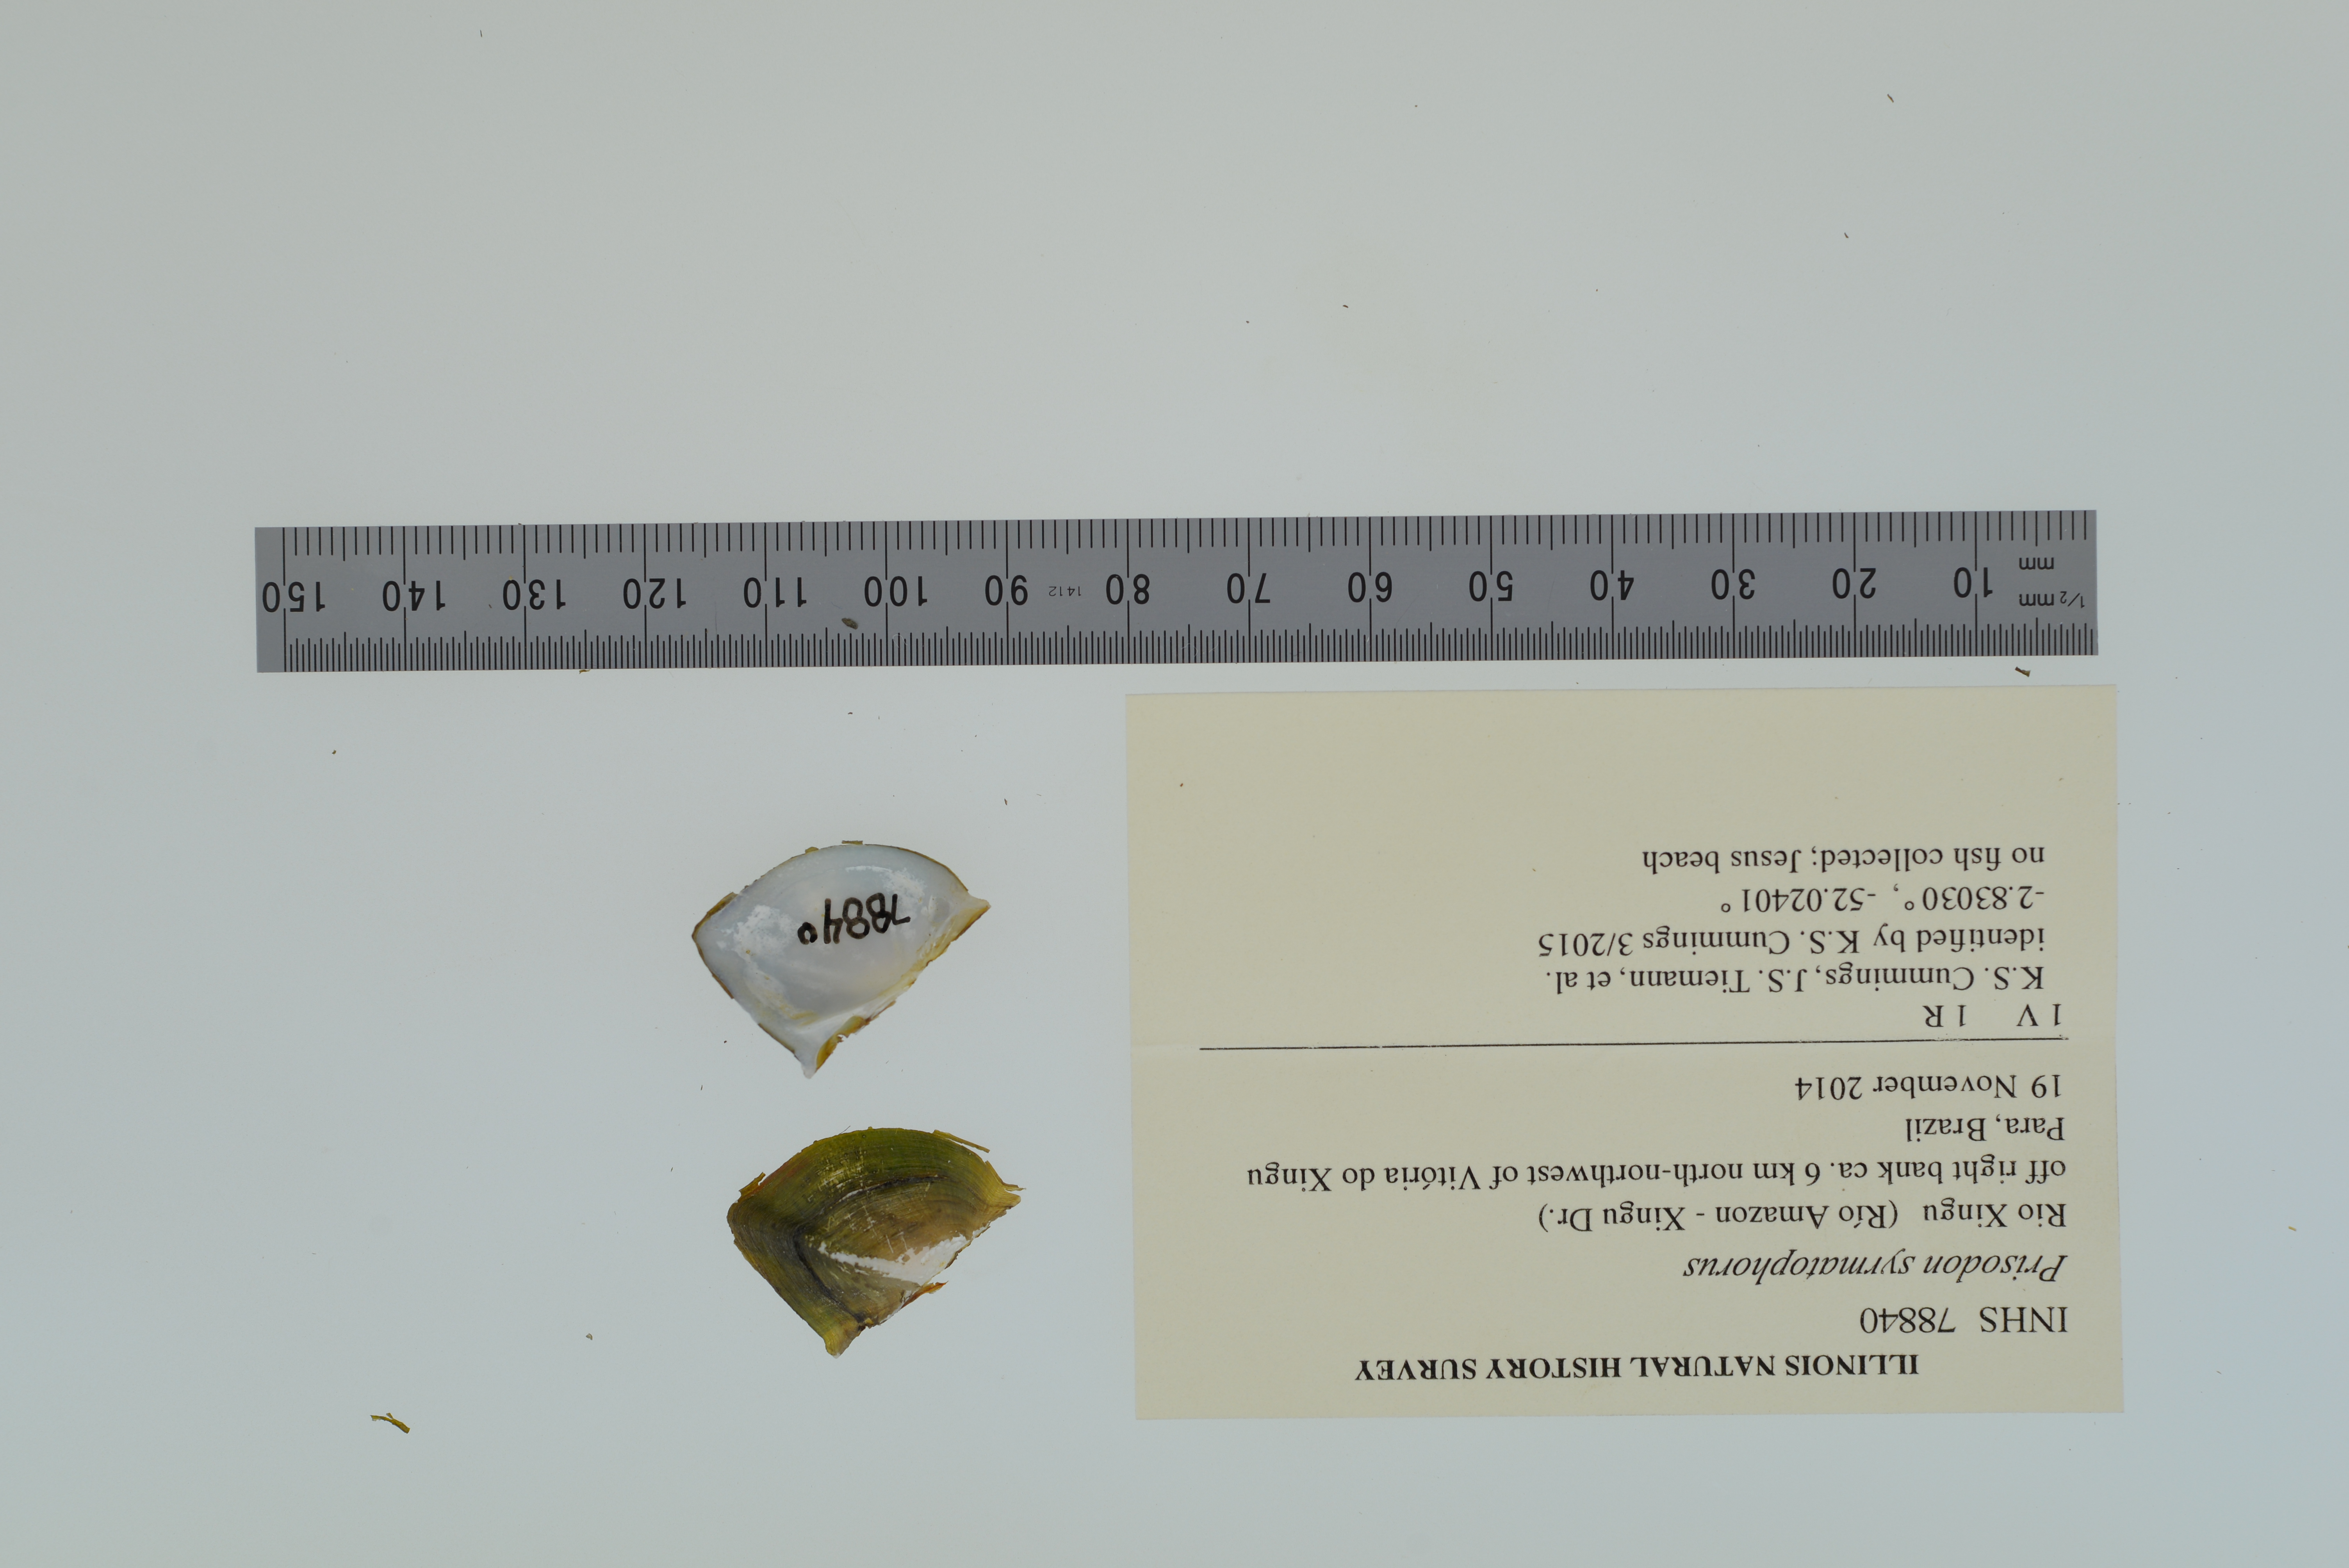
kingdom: Animalia
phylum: Mollusca
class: Bivalvia
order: Unionida
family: Hyriidae
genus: Prisodon
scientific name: Prisodon syrmatophorus
